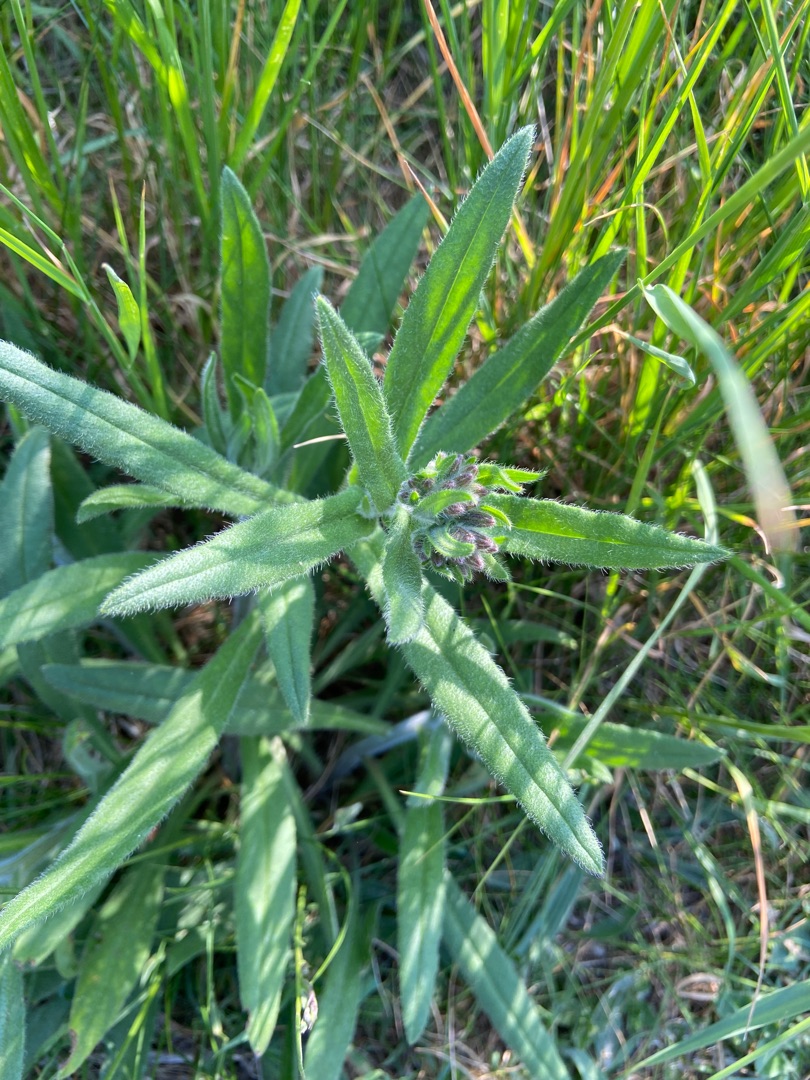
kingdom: Plantae
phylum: Tracheophyta
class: Magnoliopsida
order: Boraginales
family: Boraginaceae
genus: Anchusa
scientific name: Anchusa officinalis
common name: Læge-oksetunge
